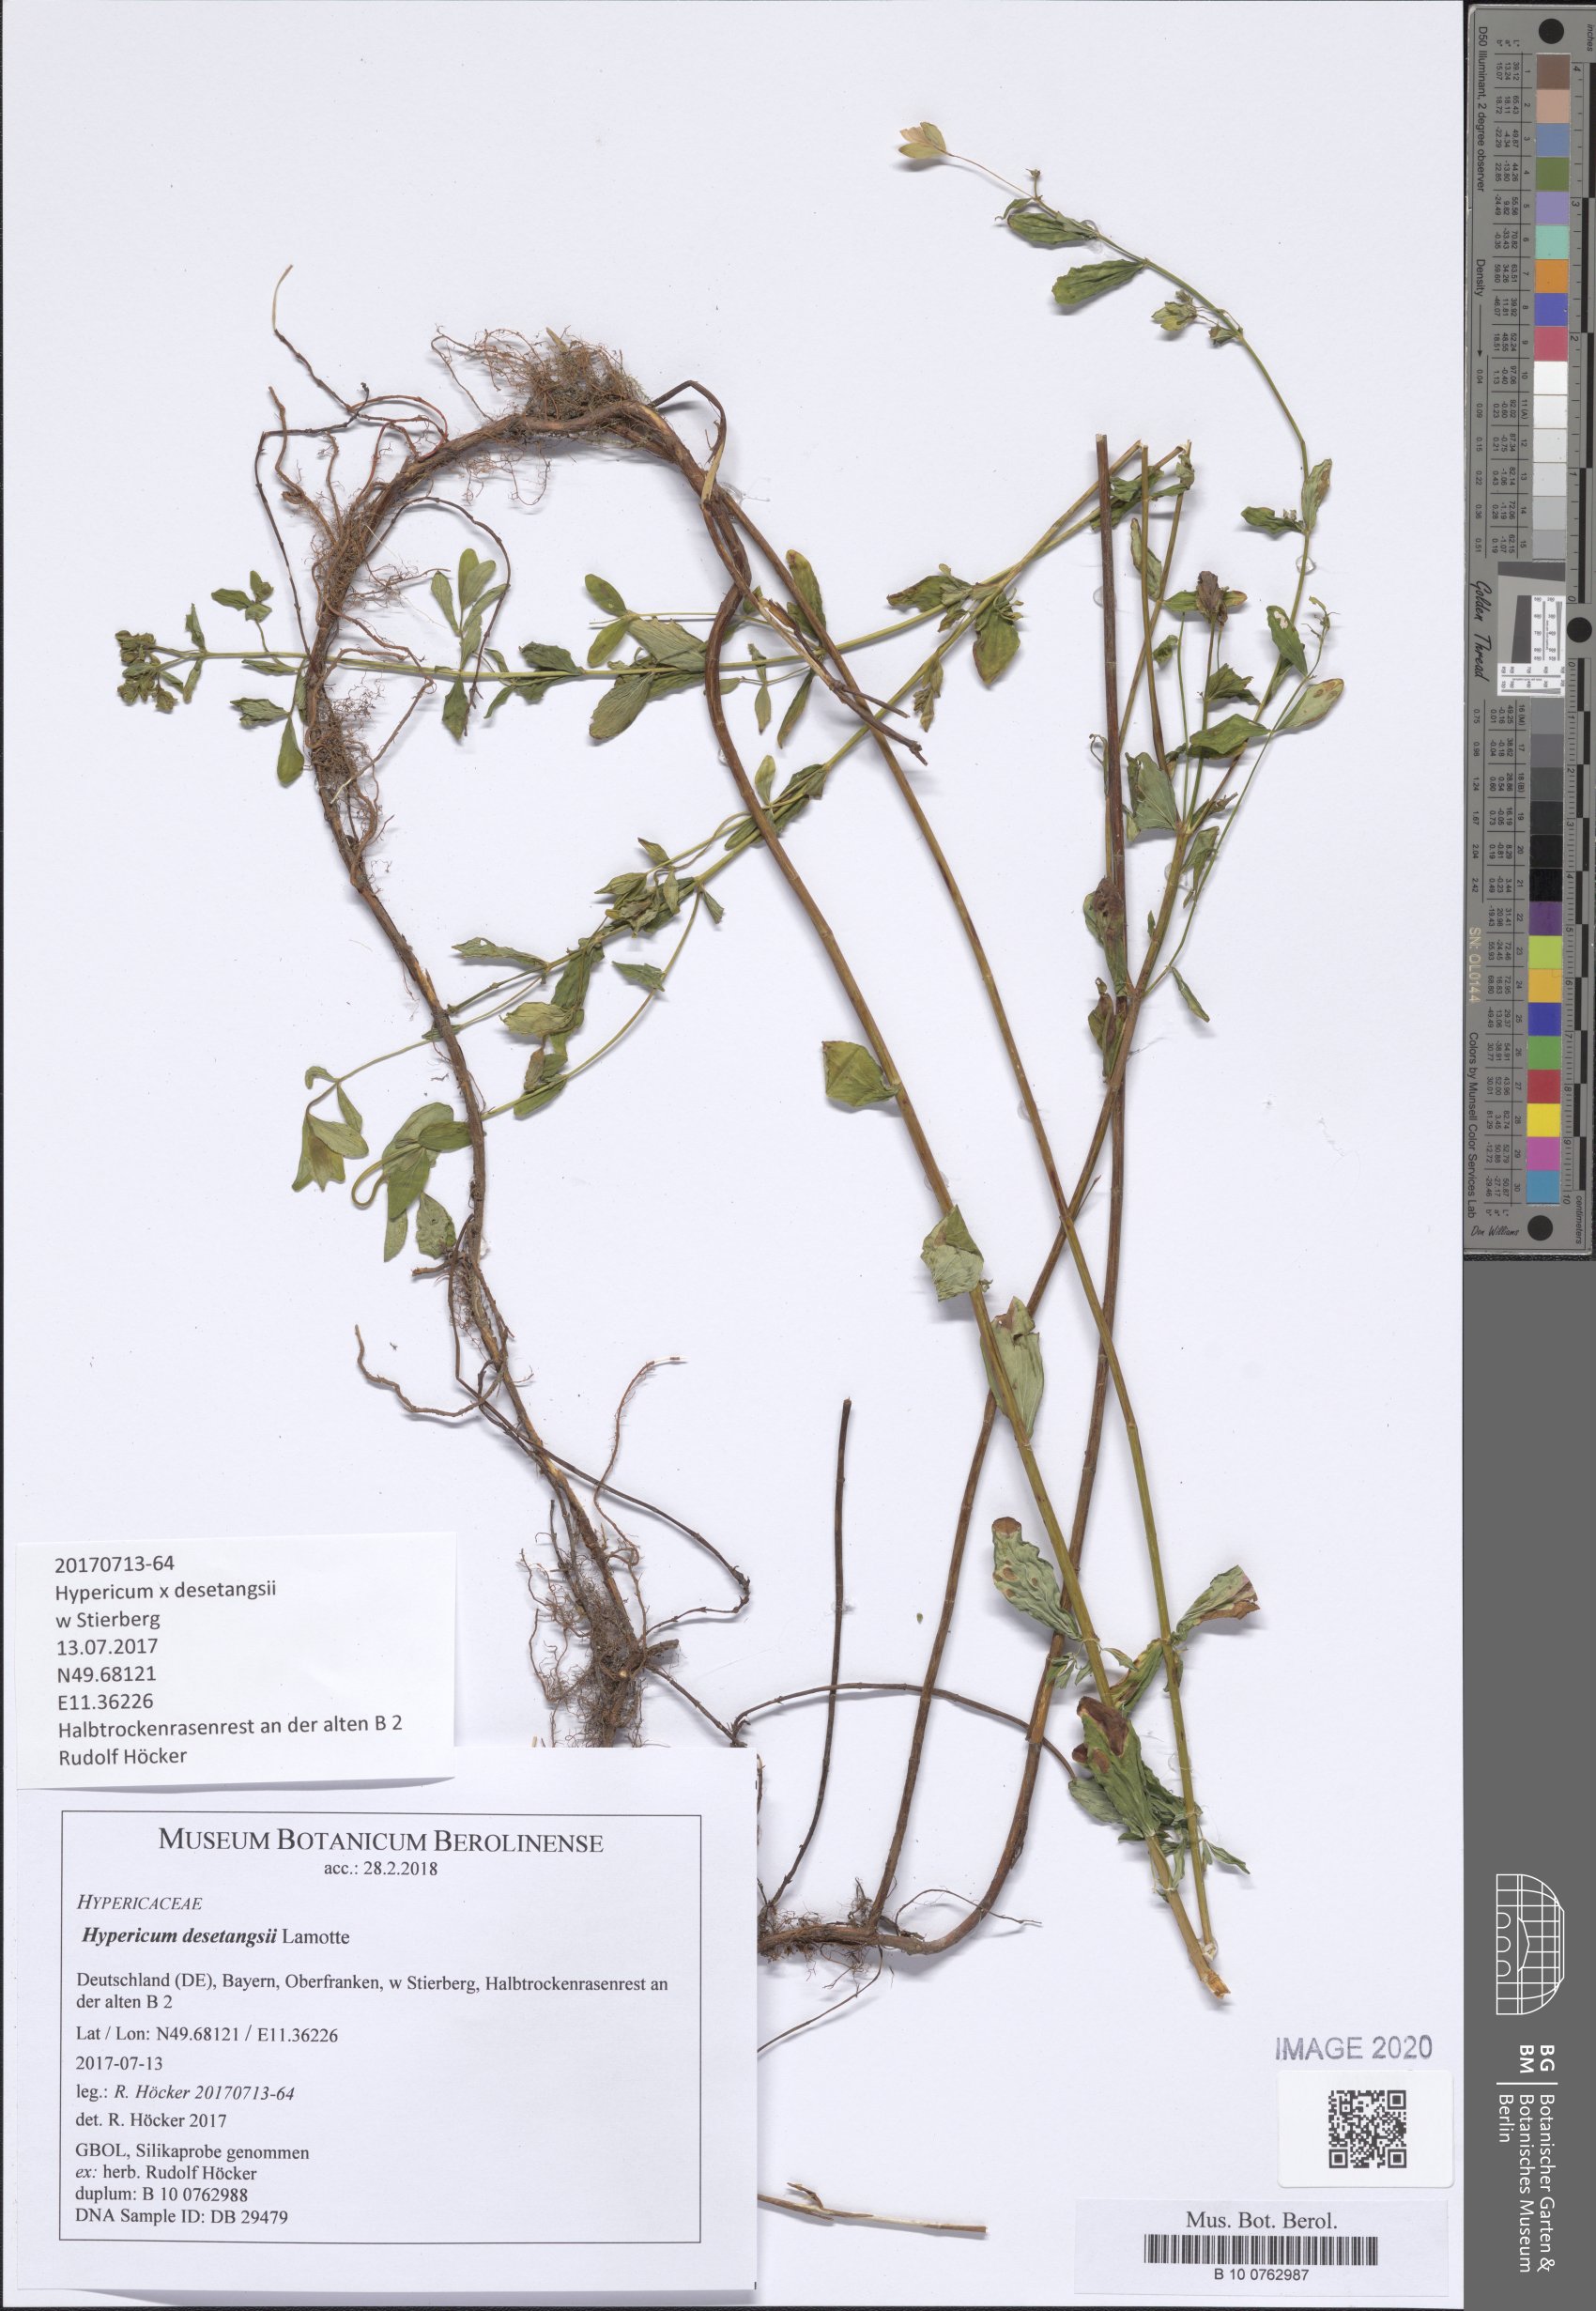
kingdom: Plantae
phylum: Tracheophyta
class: Magnoliopsida
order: Malpighiales
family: Hypericaceae
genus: Hypericum
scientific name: Hypericum desetangsii
